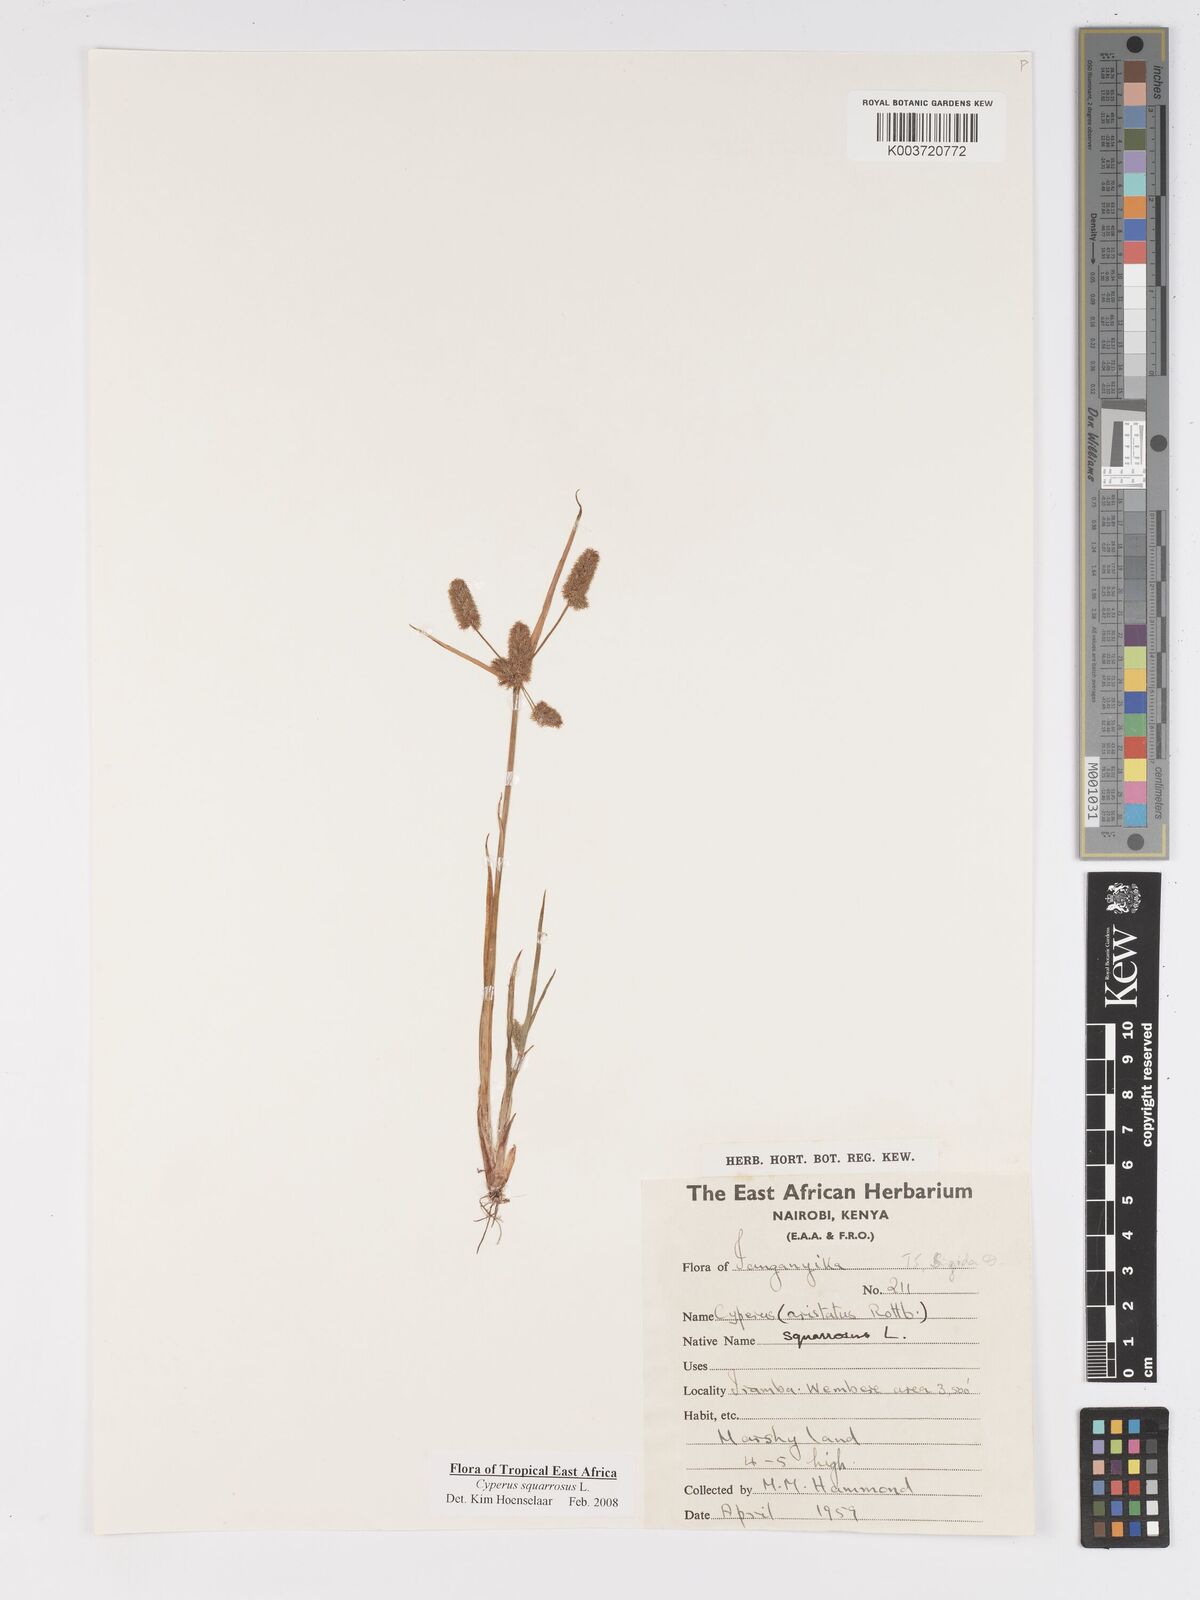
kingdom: Plantae
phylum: Tracheophyta
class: Liliopsida
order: Poales
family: Cyperaceae
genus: Cyperus
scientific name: Cyperus squarrosus
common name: Awned cyperus
